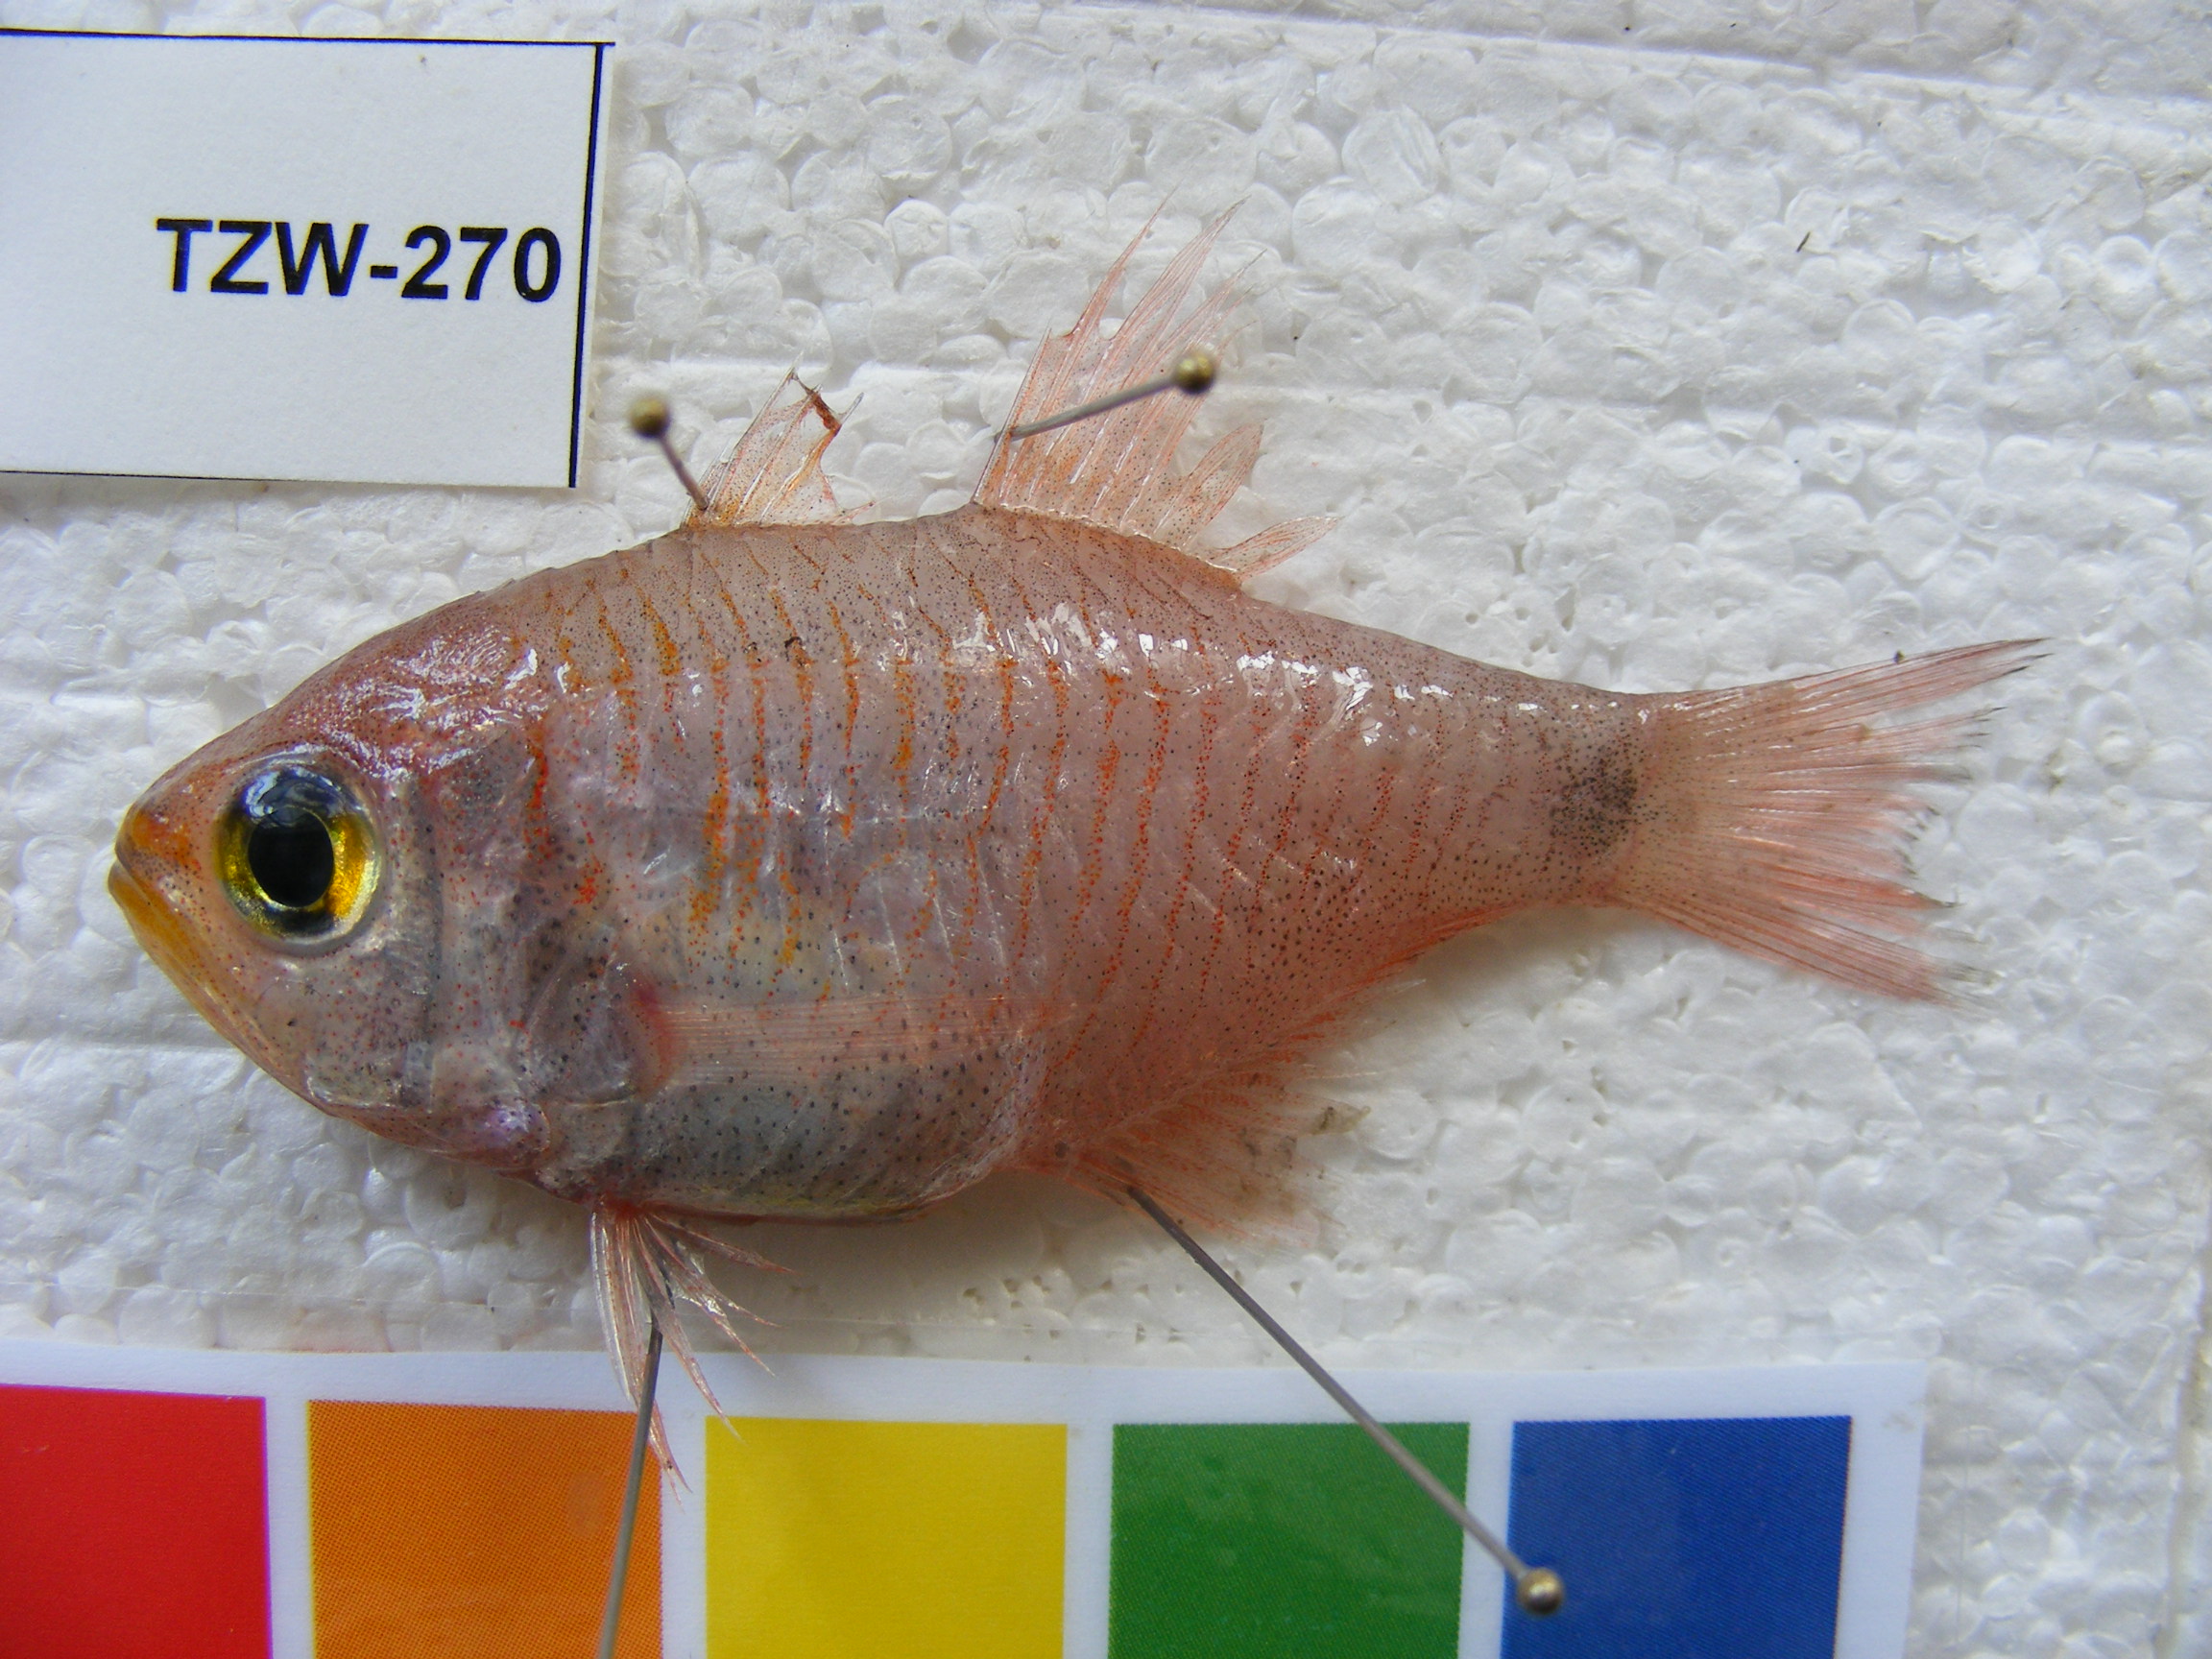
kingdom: Animalia
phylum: Chordata
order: Perciformes
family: Apogonidae
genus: Taeniamia
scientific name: Taeniamia fucata
